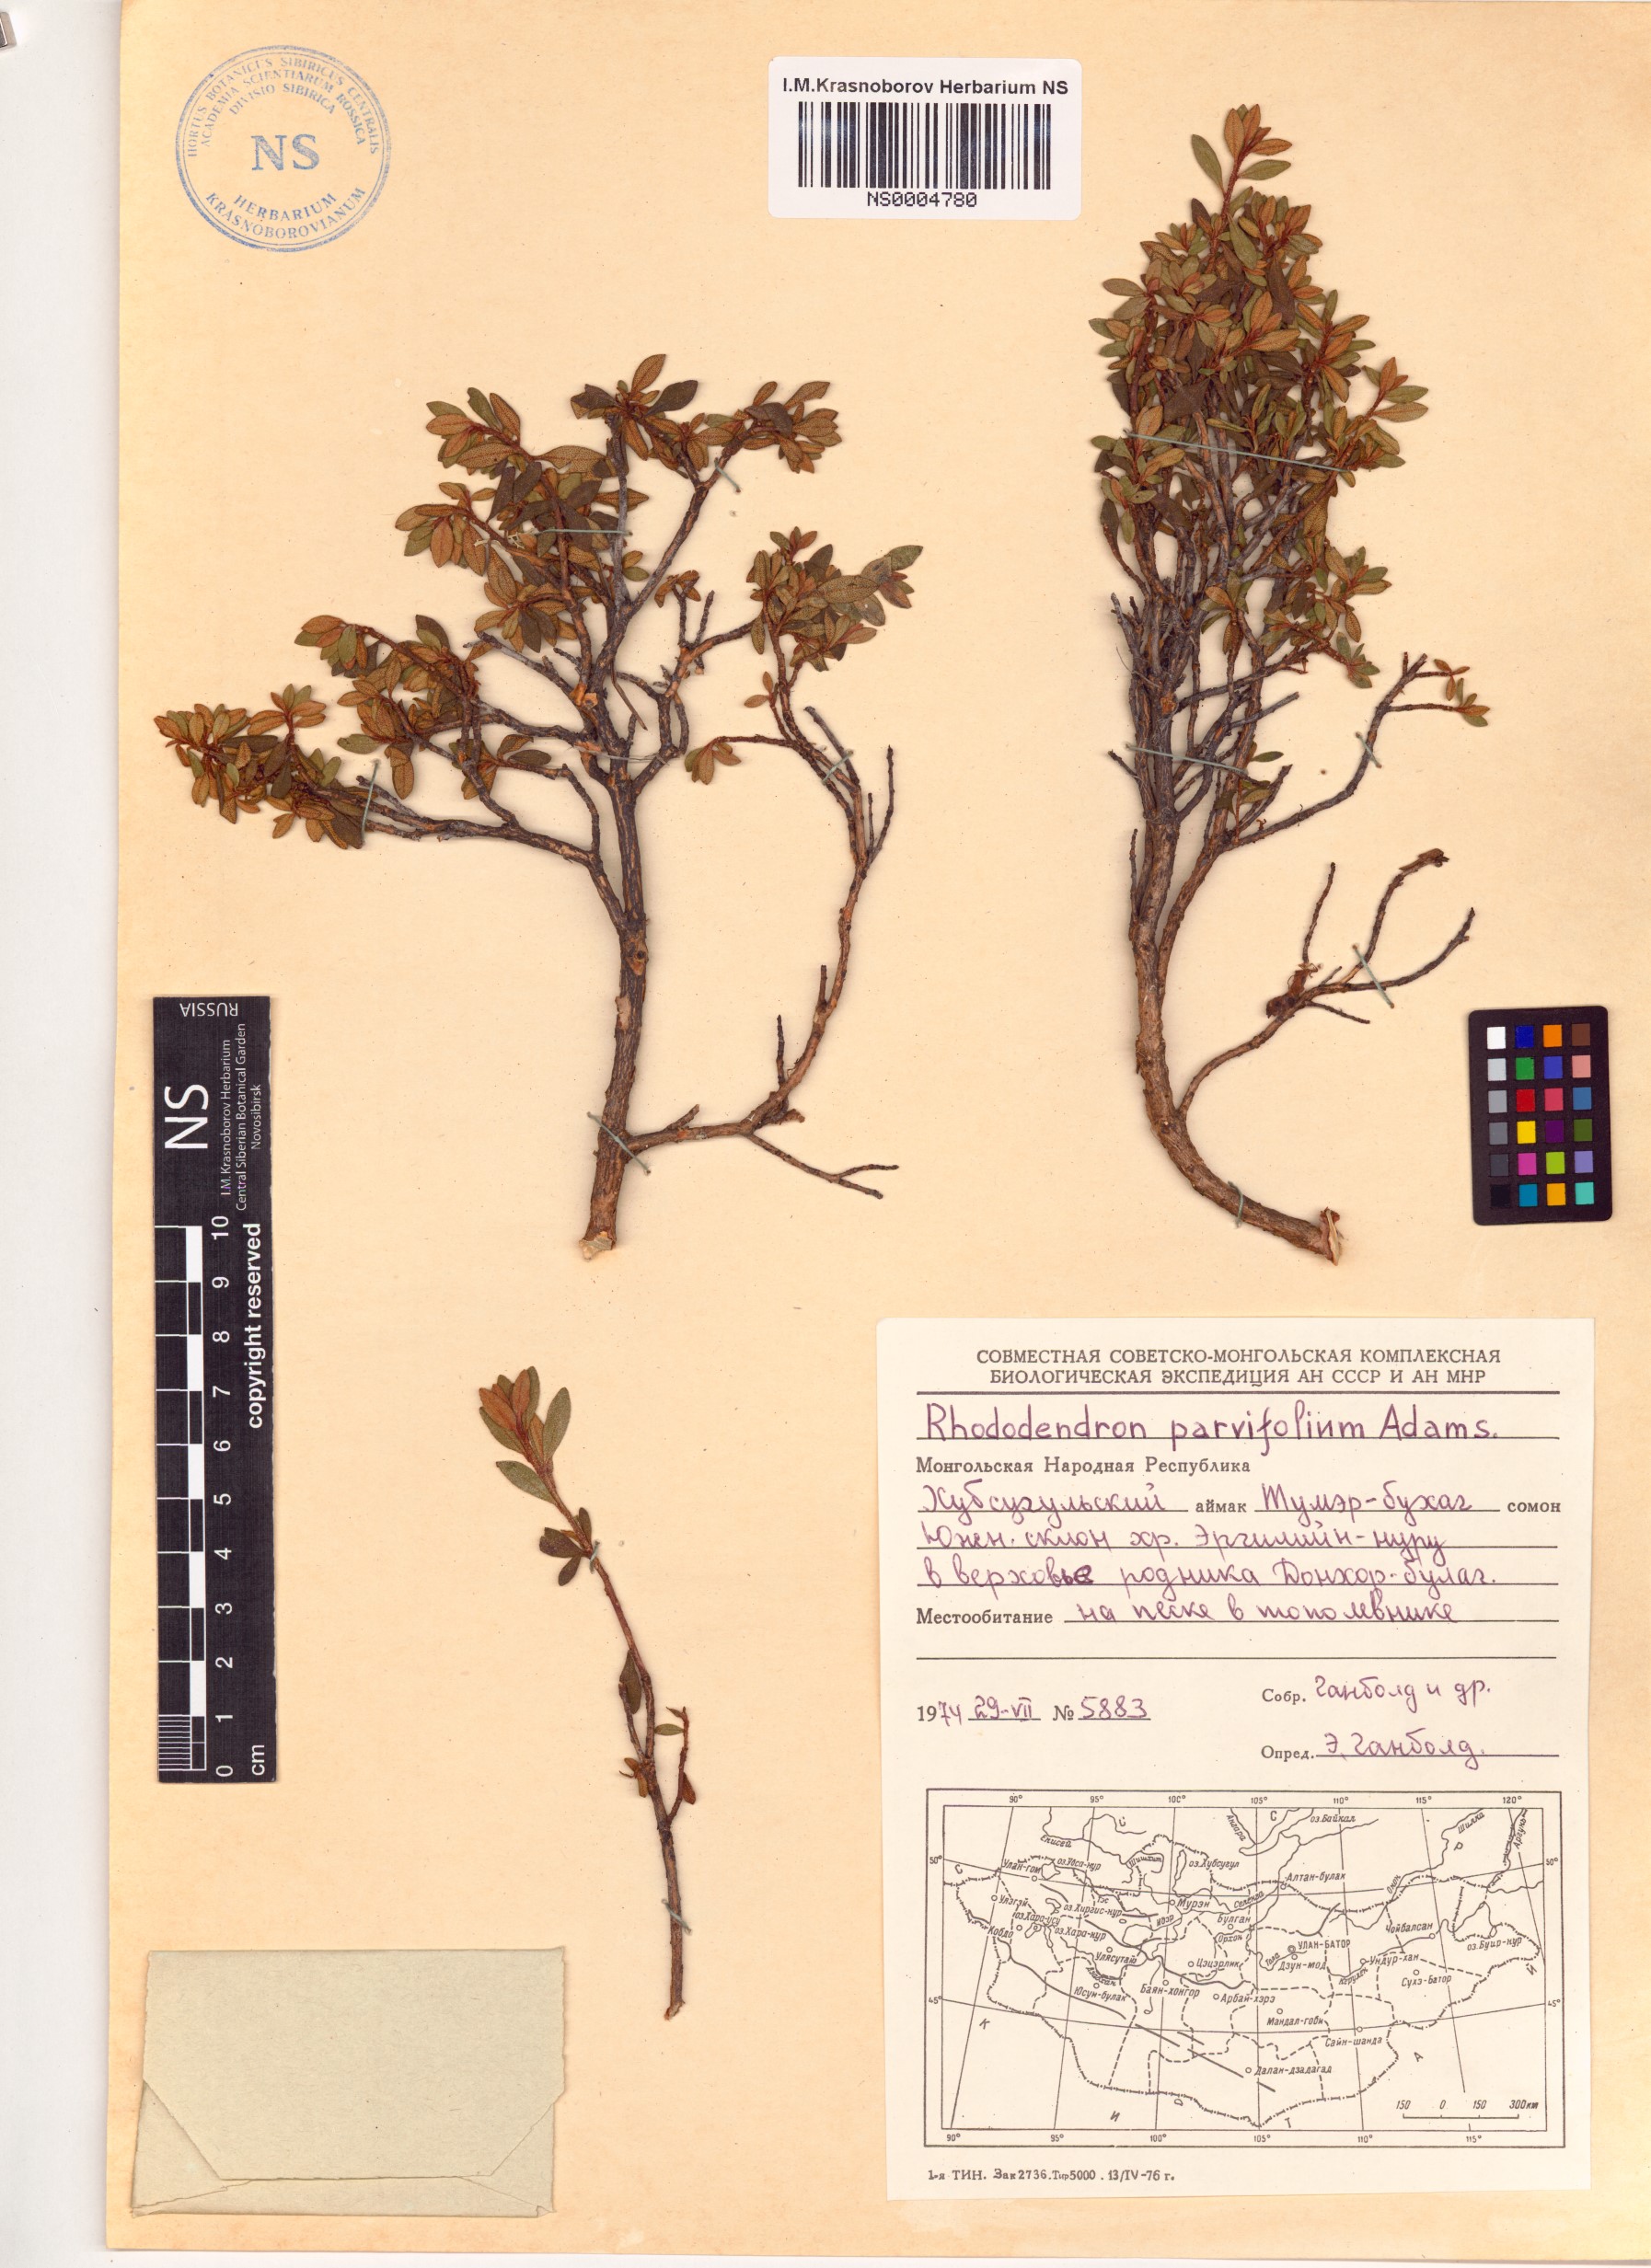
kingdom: Plantae
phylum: Tracheophyta
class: Magnoliopsida
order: Ericales
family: Ericaceae
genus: Rhododendron
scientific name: Rhododendron parvifolium
